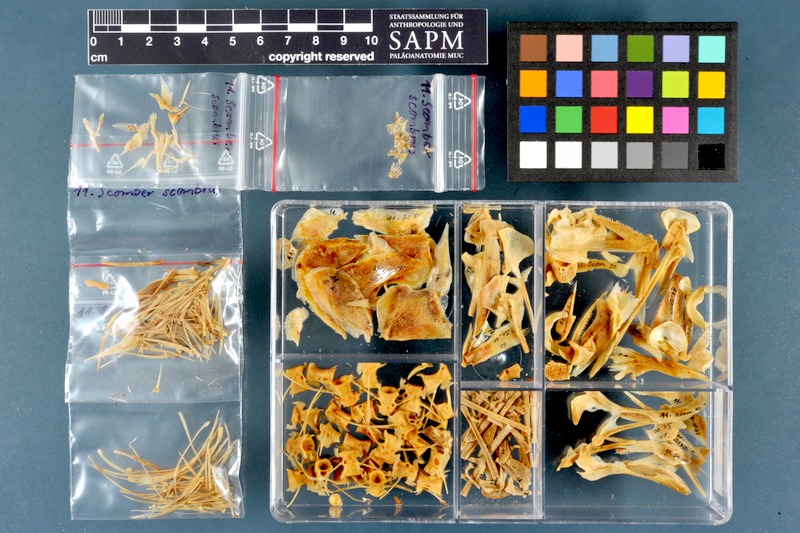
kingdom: Animalia
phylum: Chordata
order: Perciformes
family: Scombridae
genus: Scomber
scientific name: Scomber scombrus
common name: Mackerel
